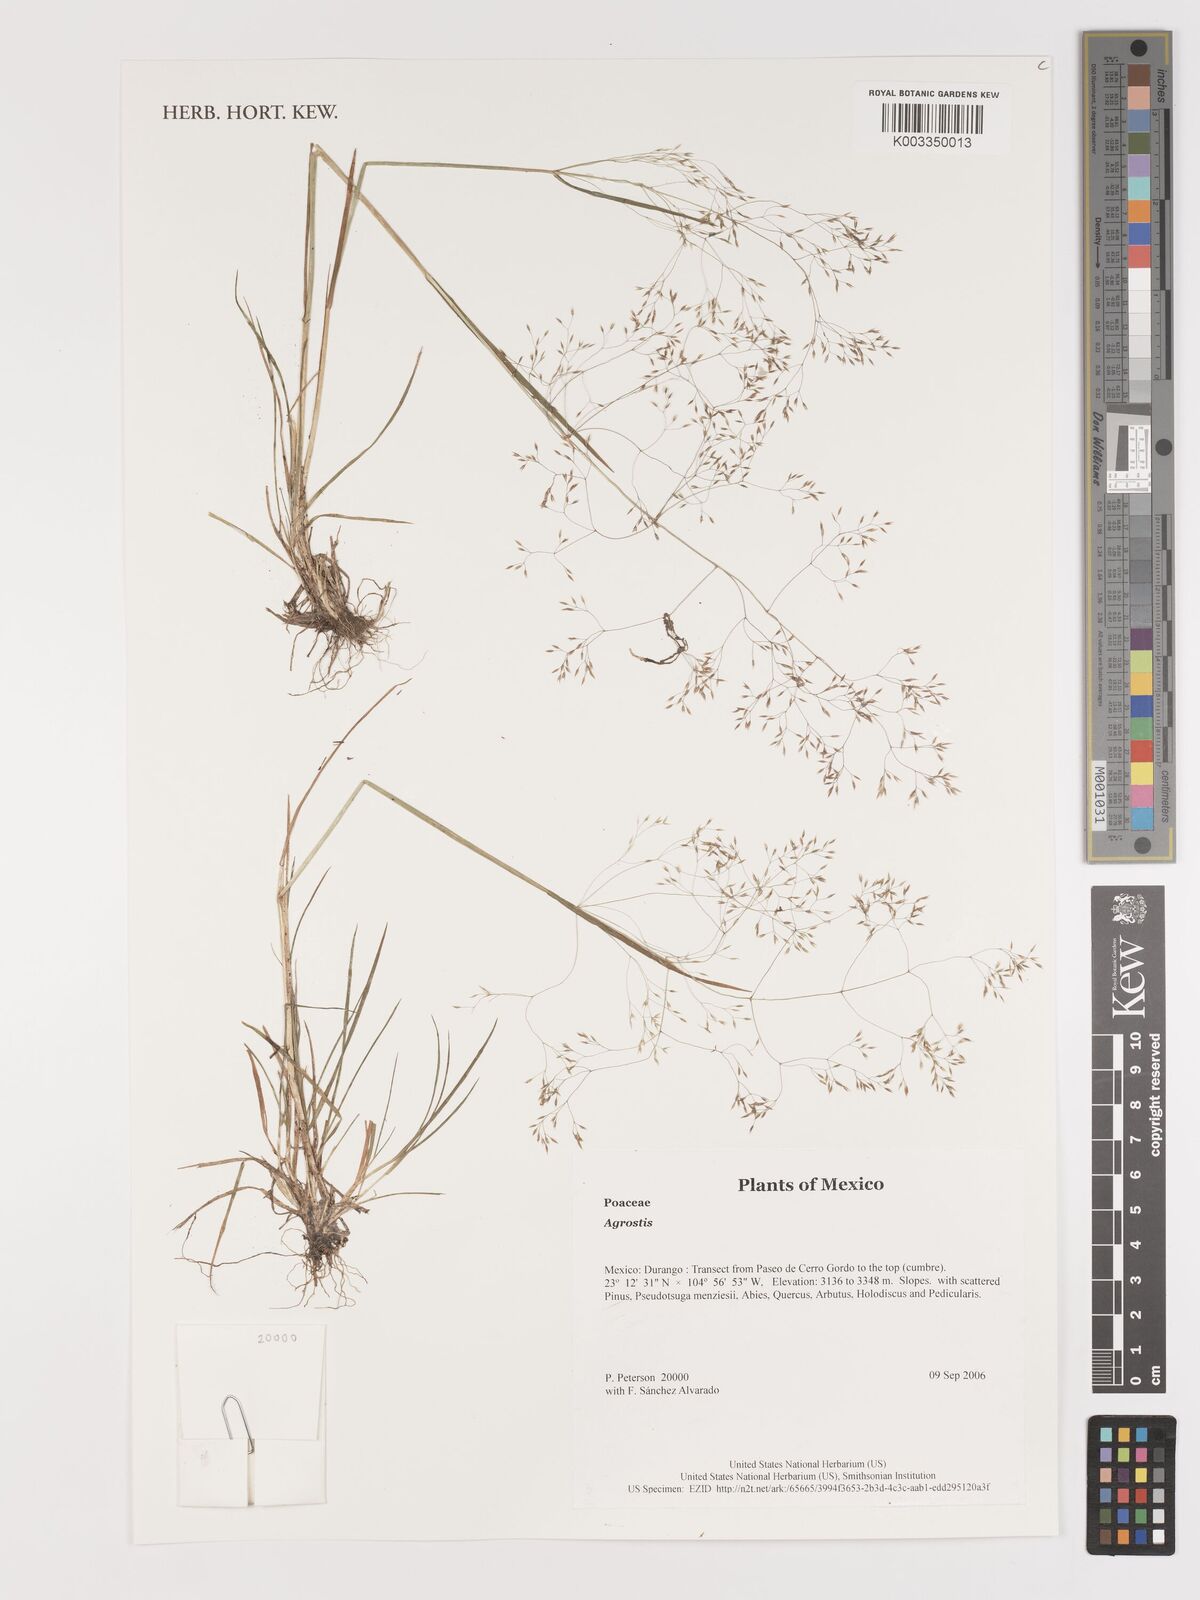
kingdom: Plantae
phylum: Tracheophyta
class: Liliopsida
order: Poales
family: Poaceae
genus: Agrostis
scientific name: Agrostis
